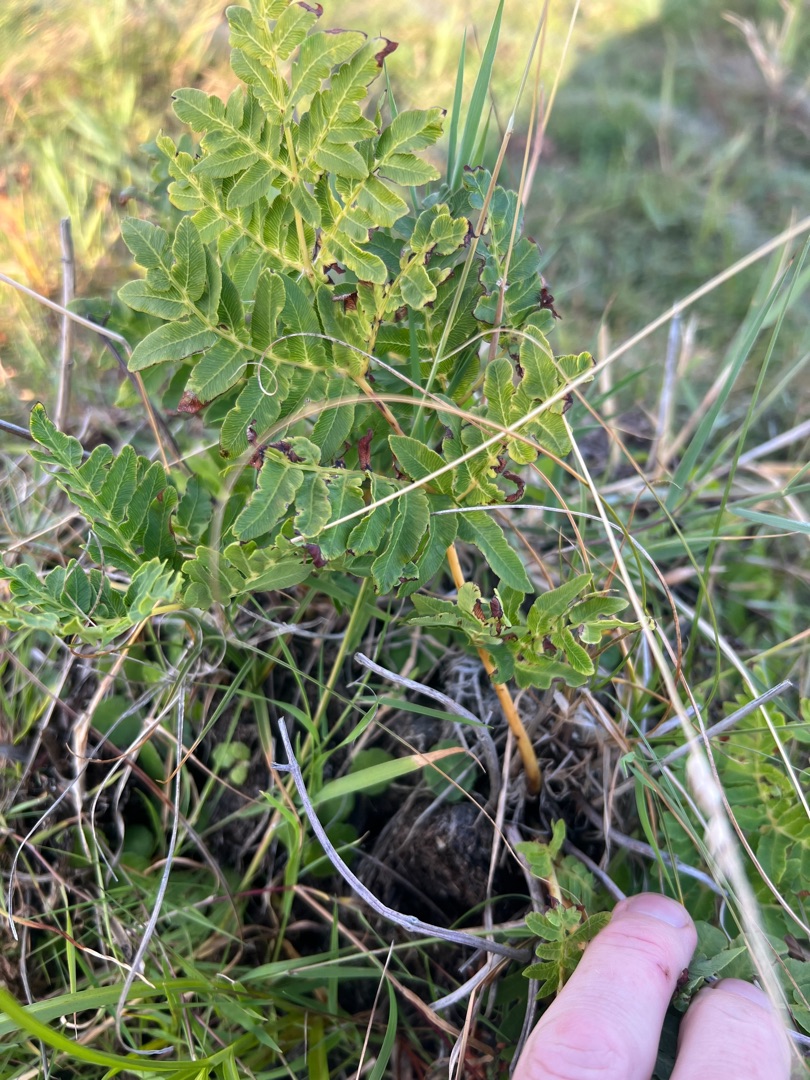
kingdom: Plantae
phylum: Tracheophyta
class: Polypodiopsida
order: Osmundales
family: Osmundaceae
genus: Osmunda
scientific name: Osmunda regalis
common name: Kongebregne
